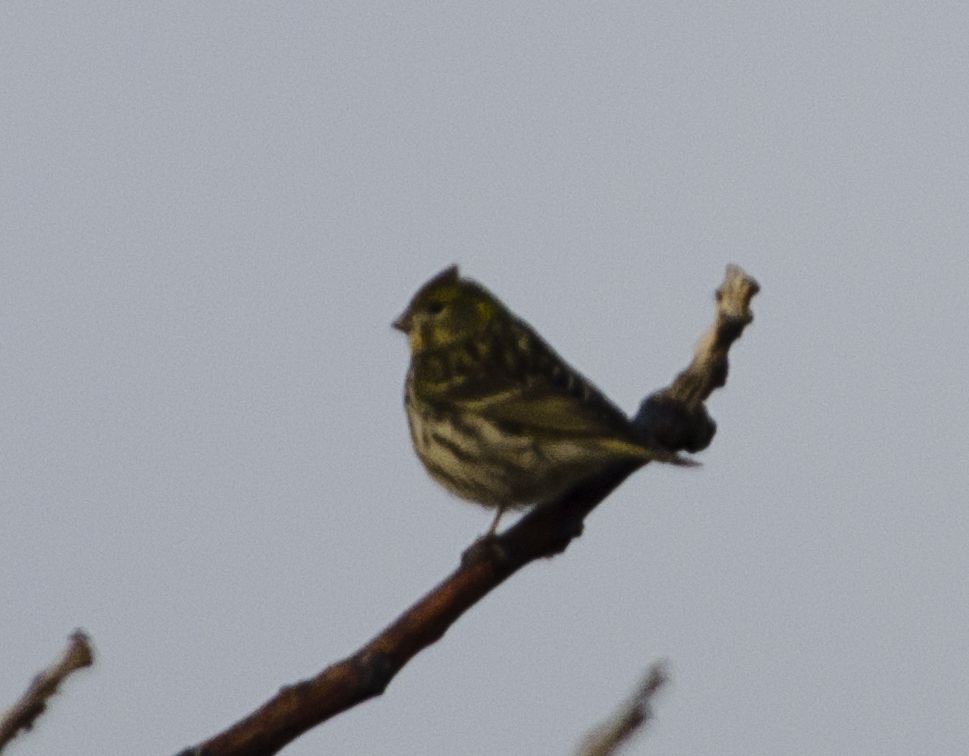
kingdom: Animalia
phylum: Chordata
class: Aves
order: Passeriformes
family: Fringillidae
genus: Serinus
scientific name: Serinus serinus
